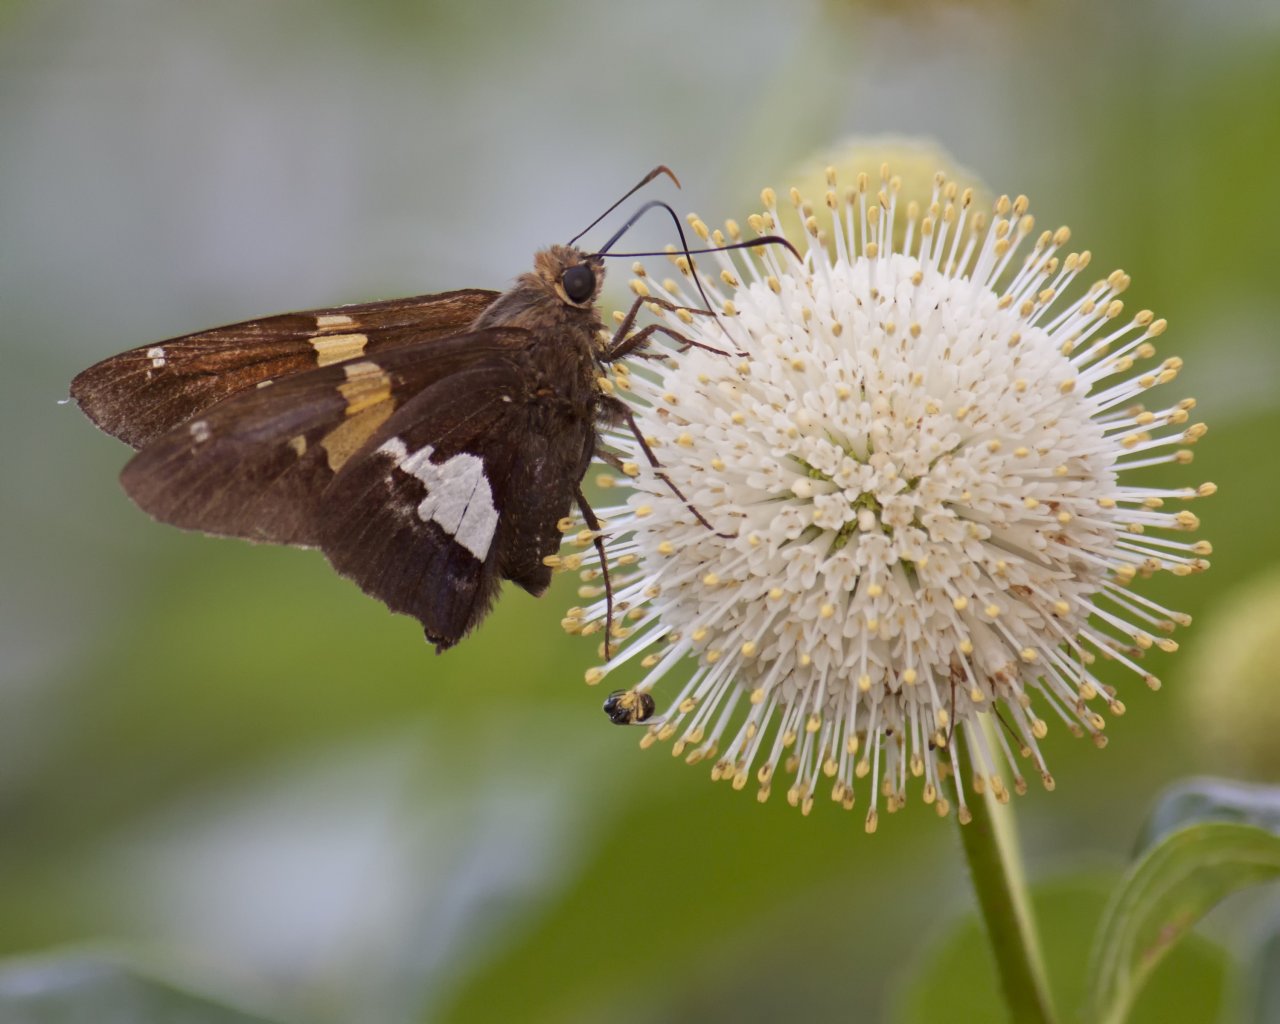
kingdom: Animalia
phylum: Arthropoda
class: Insecta
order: Lepidoptera
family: Hesperiidae
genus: Epargyreus
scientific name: Epargyreus clarus
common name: Silver-spotted Skipper
